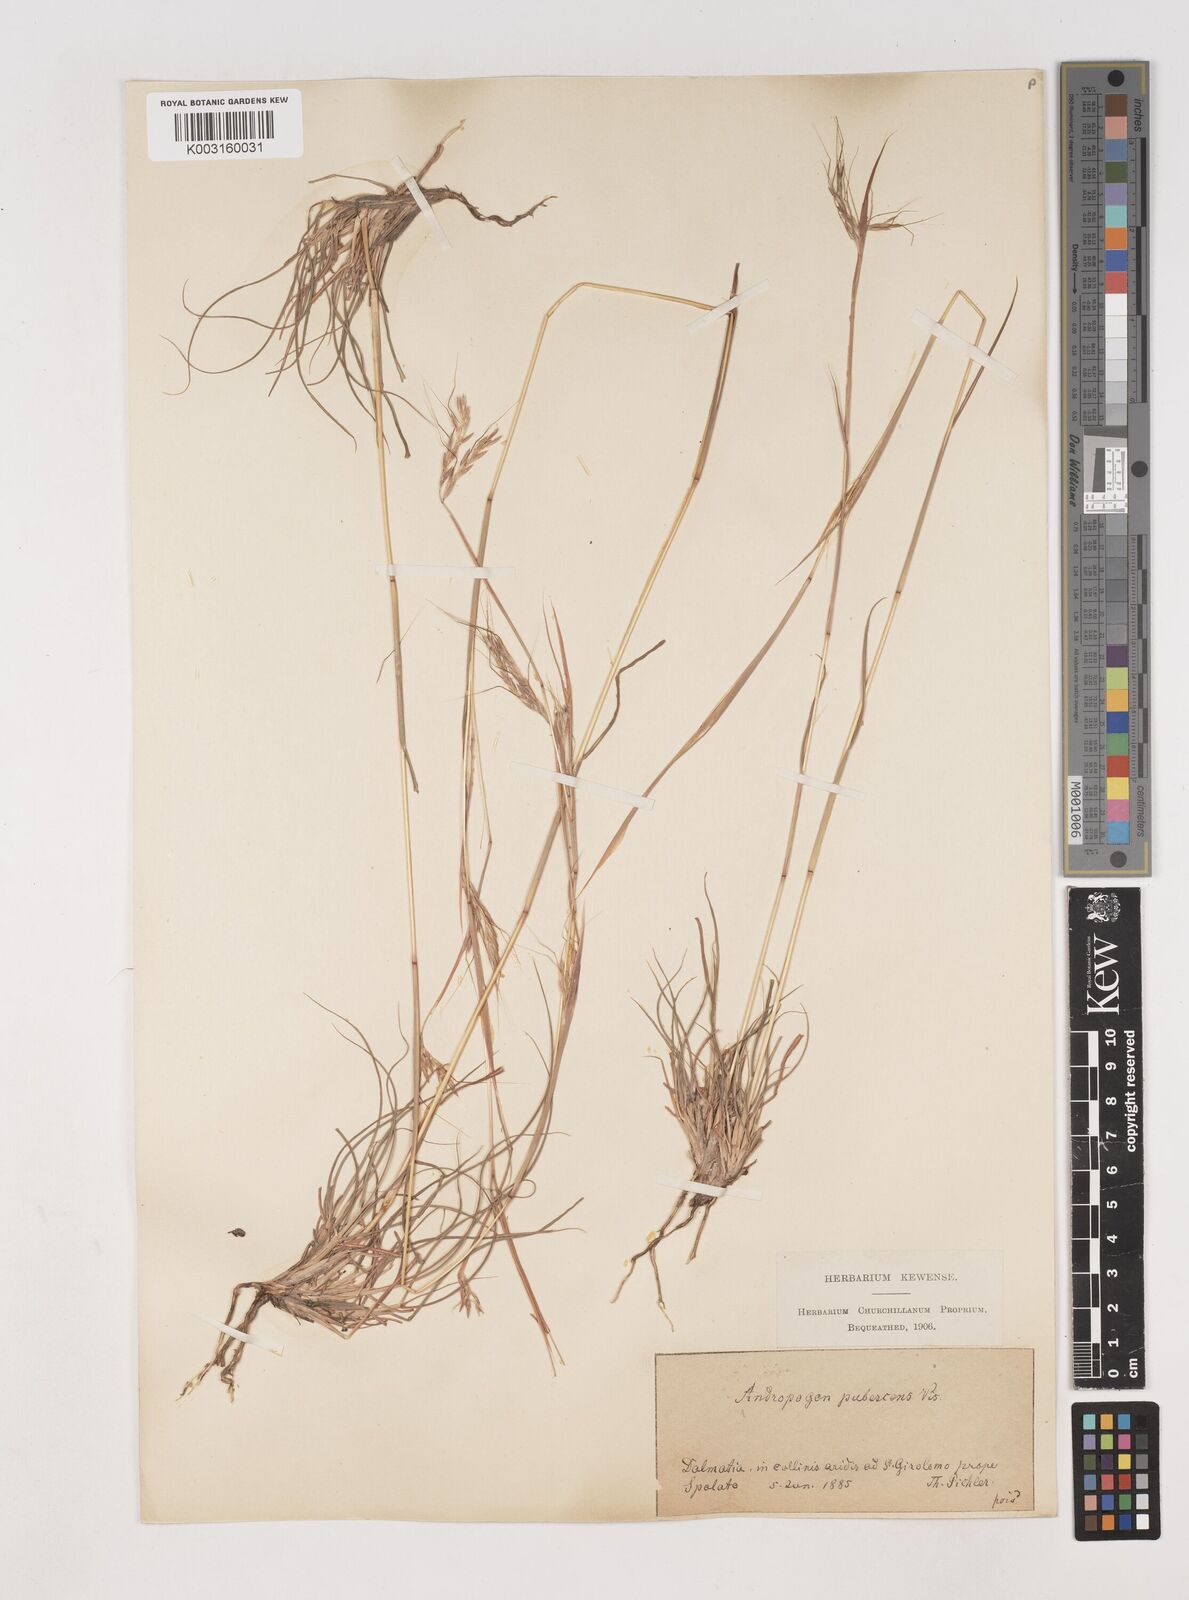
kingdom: Plantae
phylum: Tracheophyta
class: Liliopsida
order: Poales
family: Poaceae
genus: Hyparrhenia
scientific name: Hyparrhenia hirta
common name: Thatching grass
